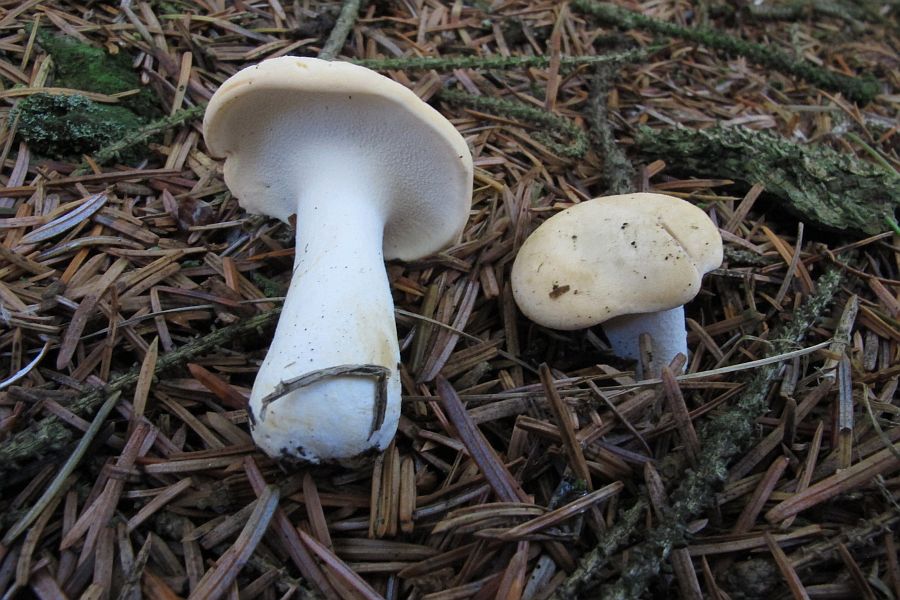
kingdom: Fungi
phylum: Basidiomycota
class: Agaricomycetes
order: Cantharellales
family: Hydnaceae
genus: Hydnum
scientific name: Hydnum repandum
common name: almindelig pigsvamp
